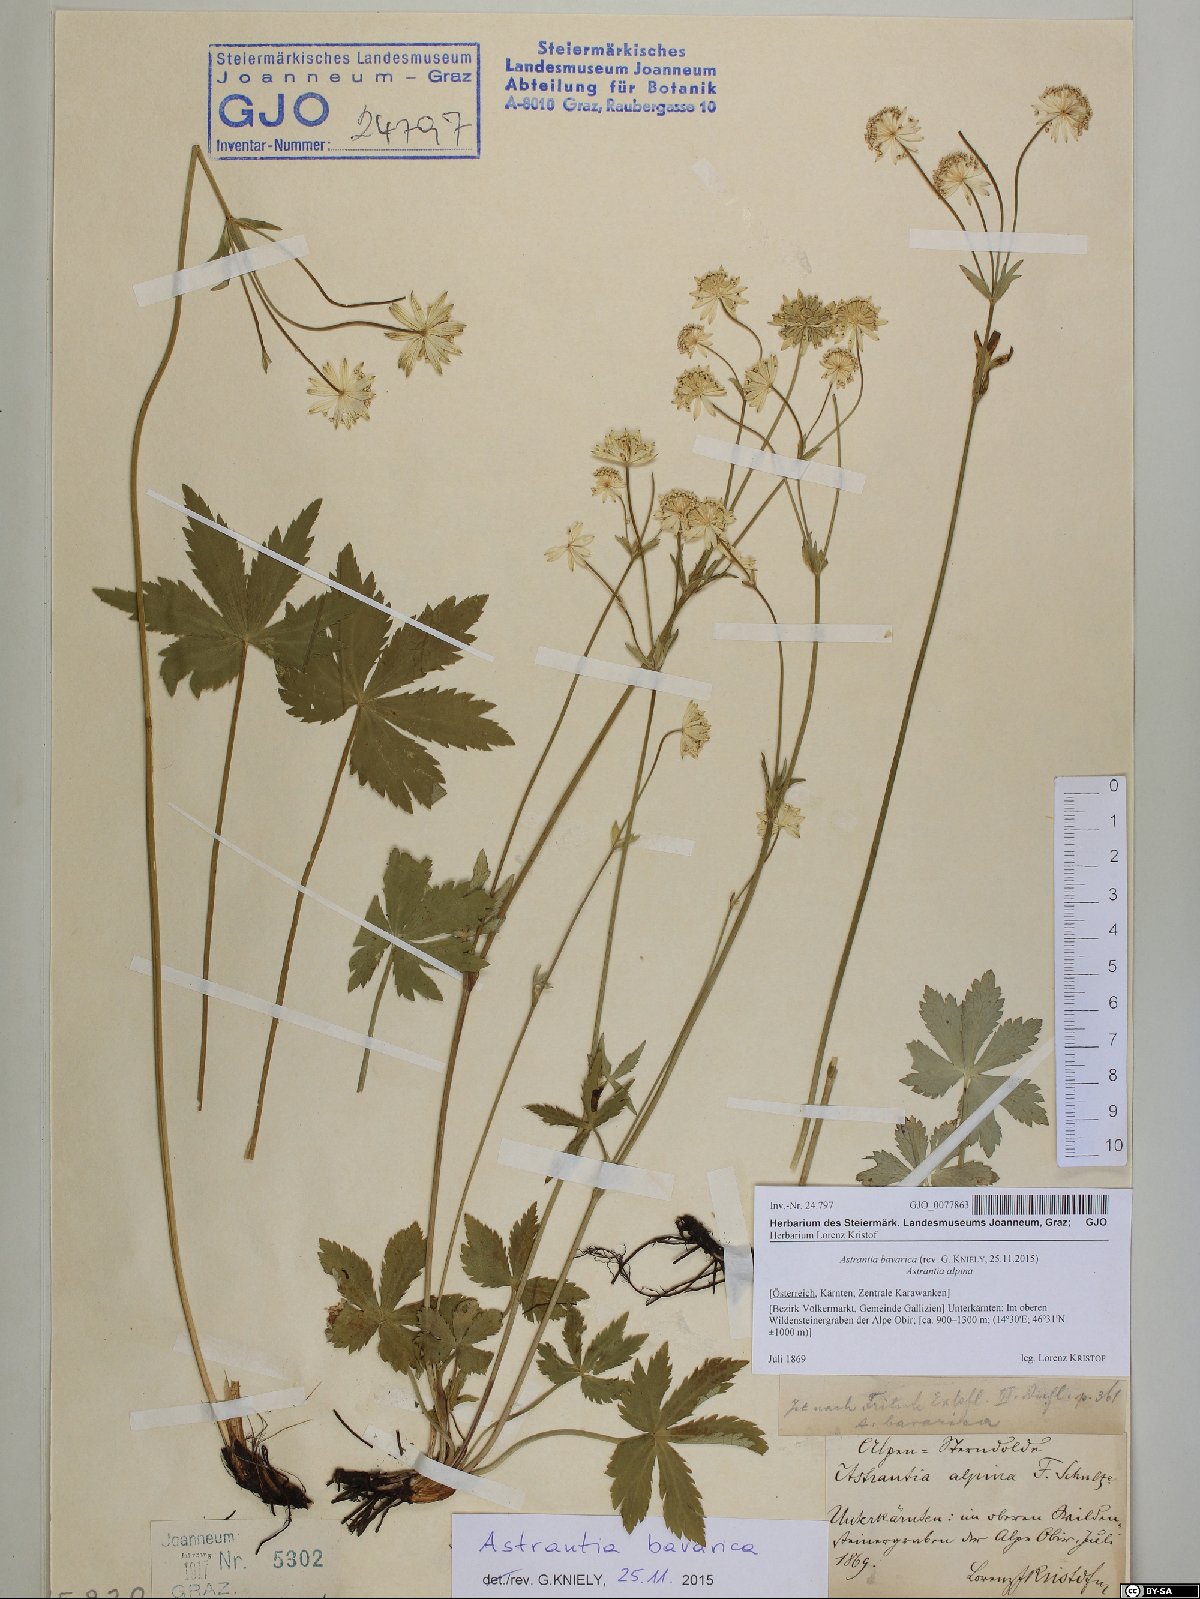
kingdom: Plantae
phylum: Tracheophyta
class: Magnoliopsida
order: Apiales
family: Apiaceae
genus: Astrantia
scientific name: Astrantia bavarica
